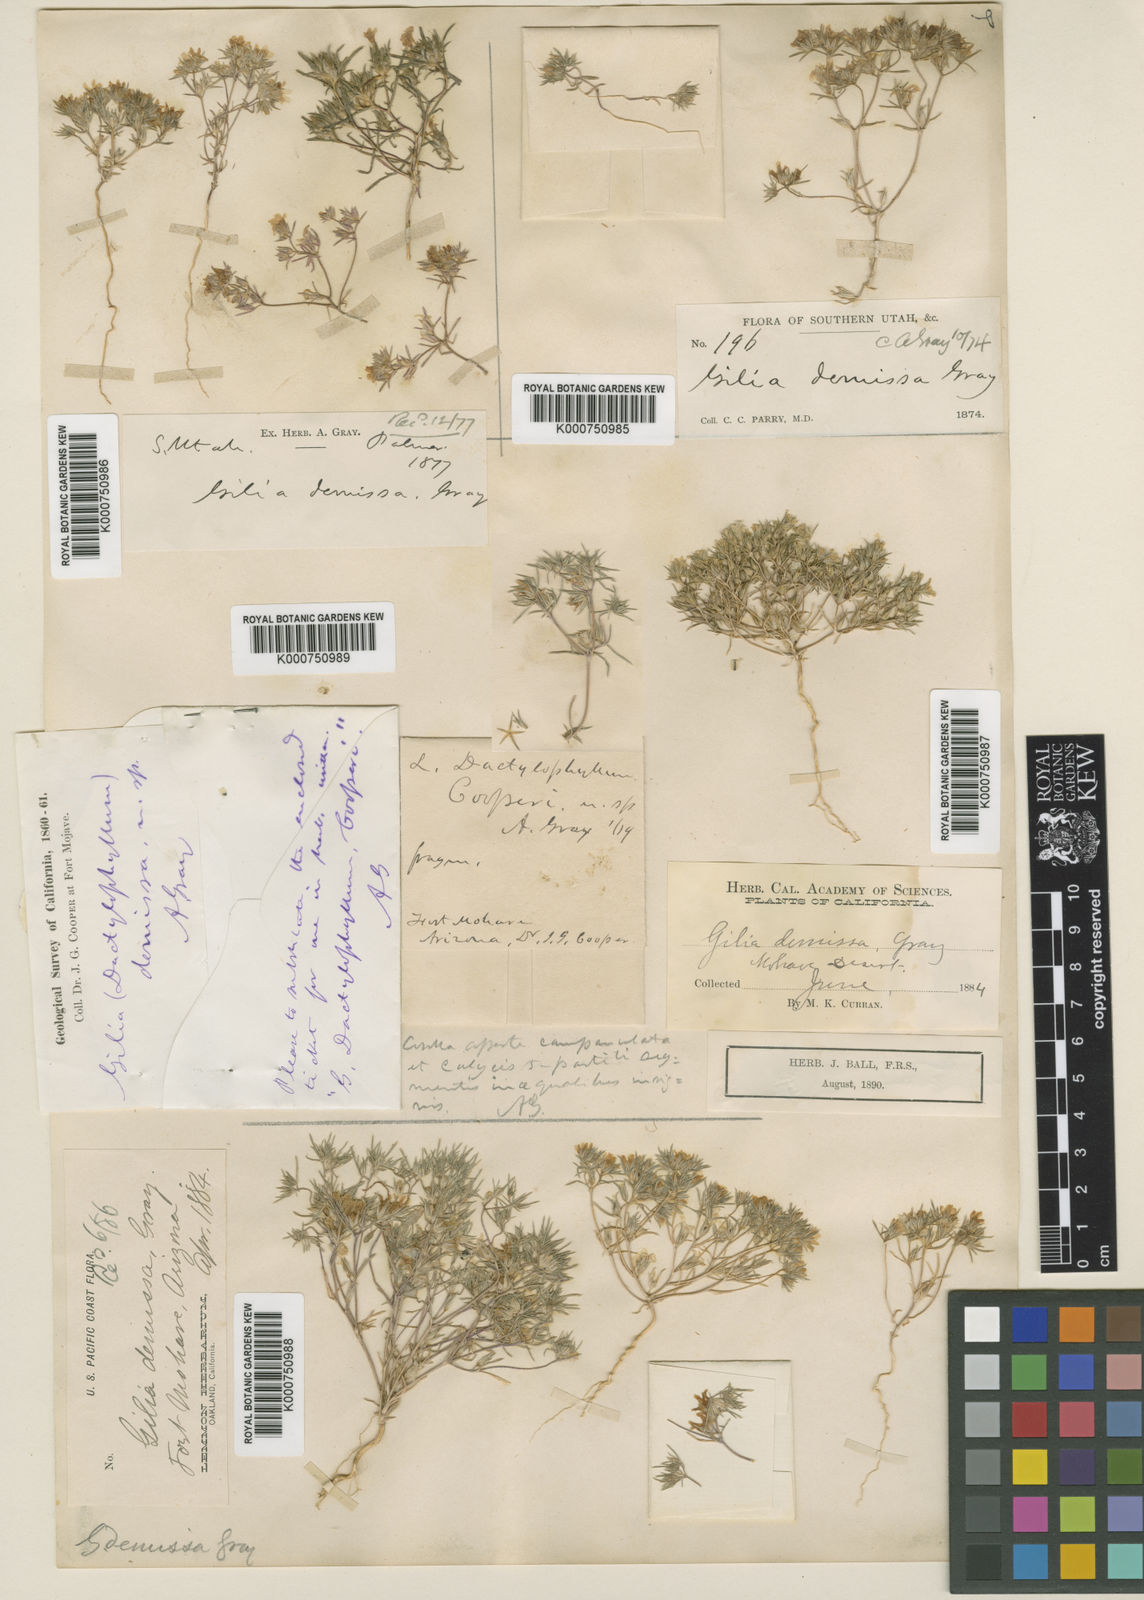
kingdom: Plantae
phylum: Tracheophyta
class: Magnoliopsida
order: Ericales
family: Polemoniaceae
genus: Linanthus
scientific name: Linanthus demissus
